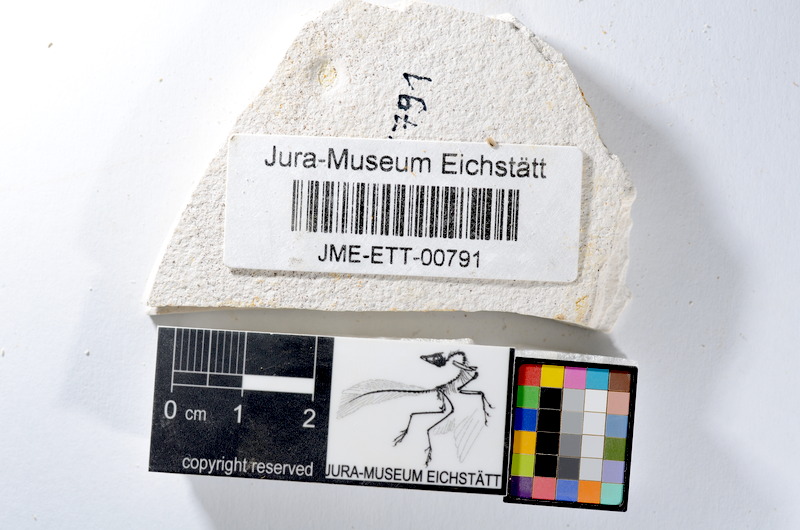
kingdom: Animalia
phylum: Chordata
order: Salmoniformes
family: Orthogonikleithridae
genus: Orthogonikleithrus
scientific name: Orthogonikleithrus hoelli
